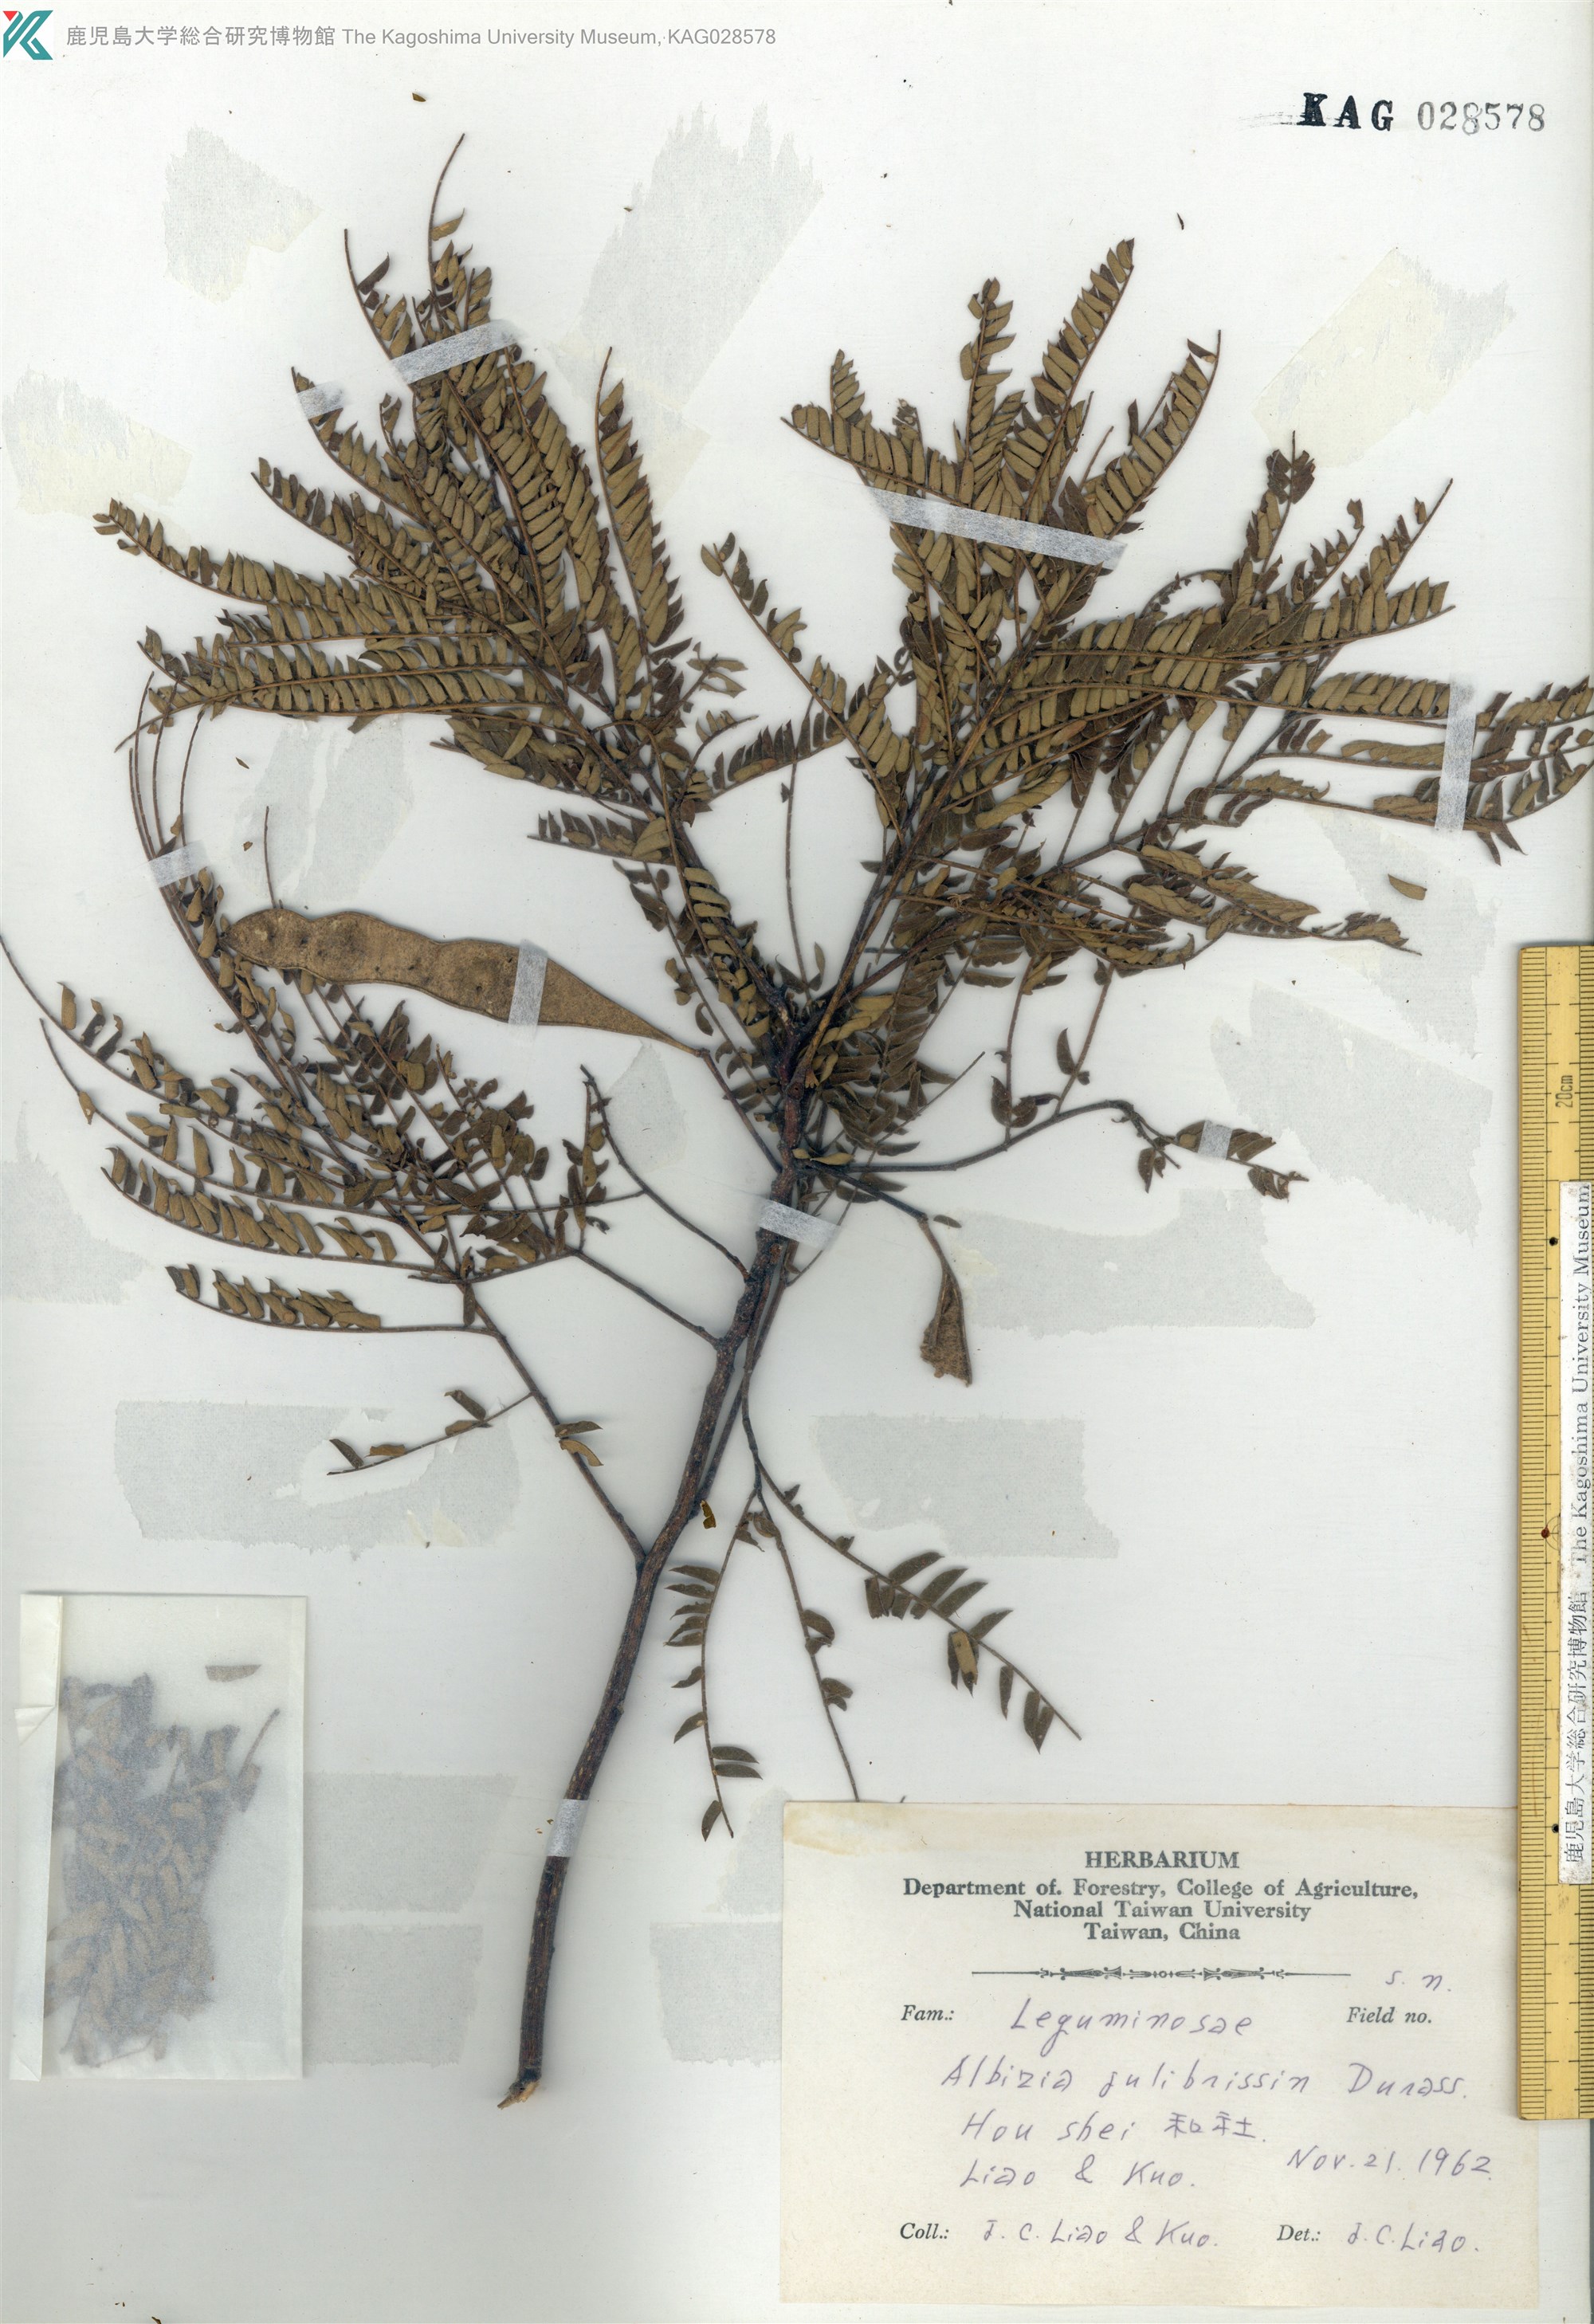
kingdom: Plantae
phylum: Tracheophyta
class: Magnoliopsida
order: Fabales
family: Fabaceae
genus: Leucaena
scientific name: Leucaena leucocephala
